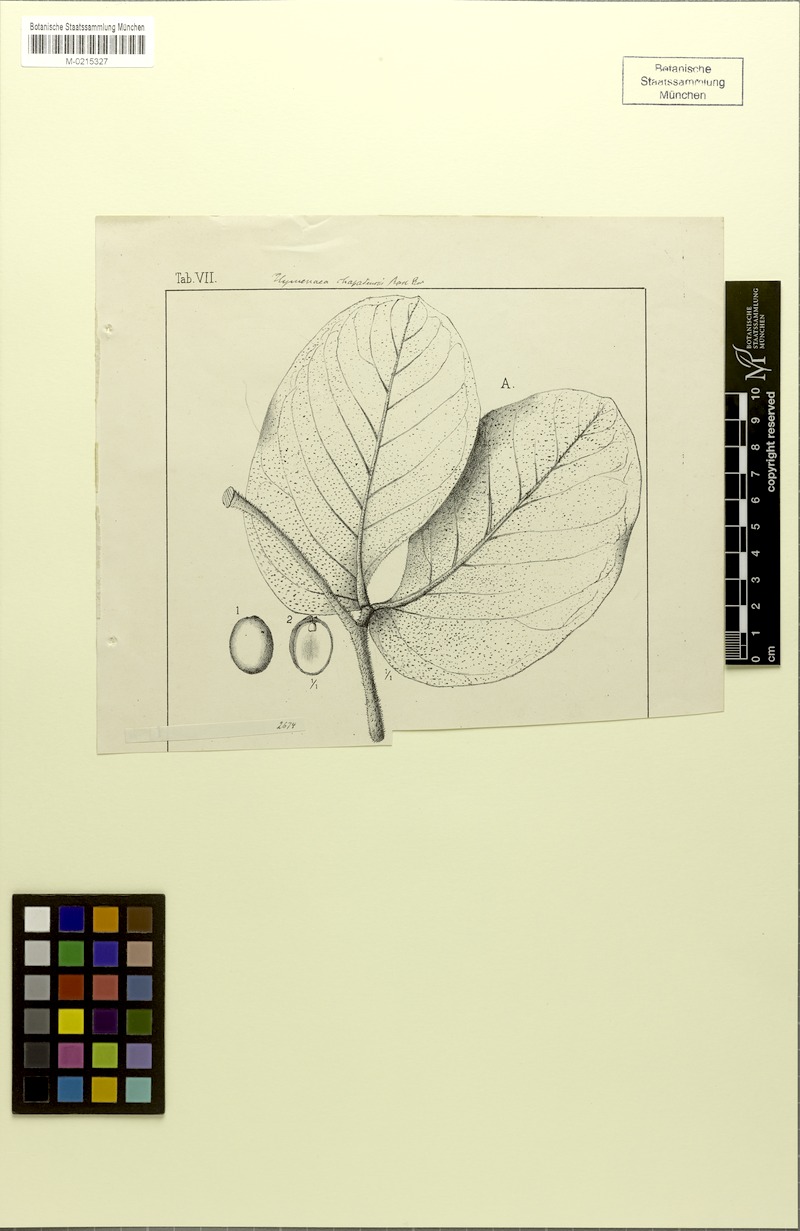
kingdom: Plantae
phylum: Tracheophyta
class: Magnoliopsida
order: Fabales
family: Fabaceae
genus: Hymenaea
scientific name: Hymenaea stigonocarpa
